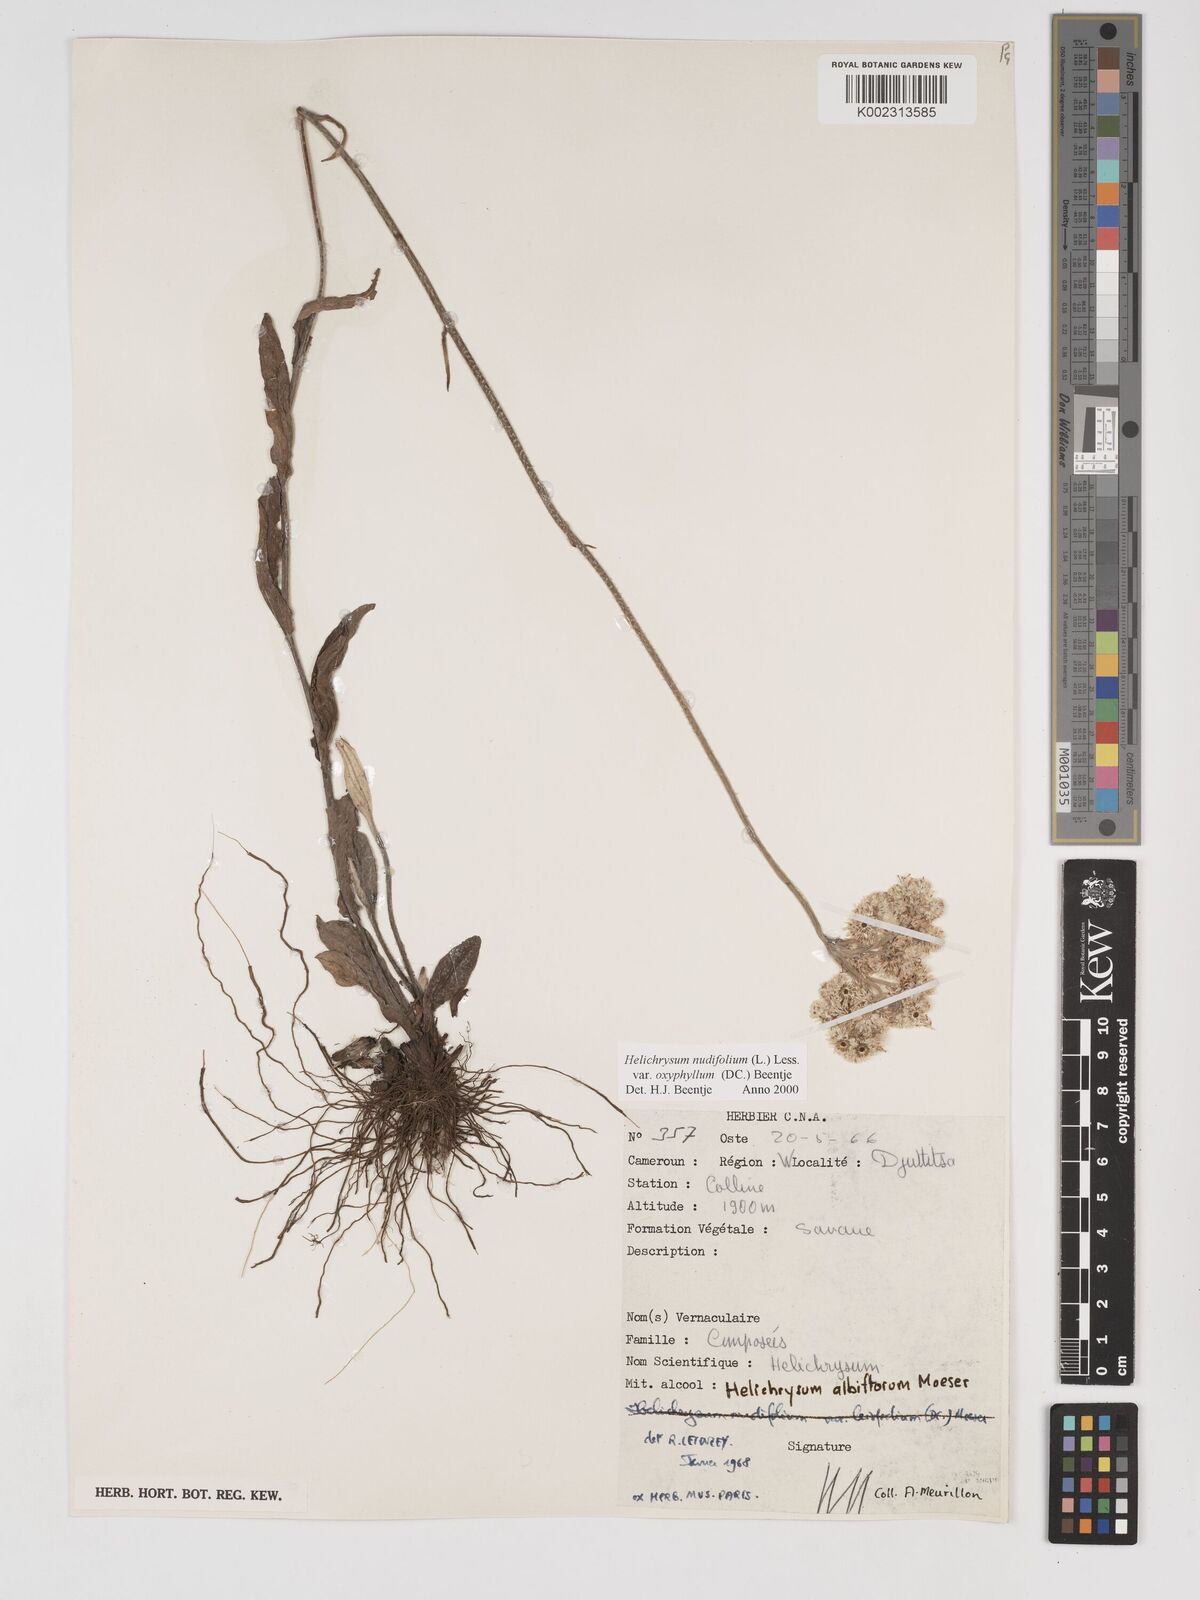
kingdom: Plantae
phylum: Tracheophyta
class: Magnoliopsida
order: Asterales
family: Asteraceae
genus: Helichrysum
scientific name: Helichrysum nudifolium
